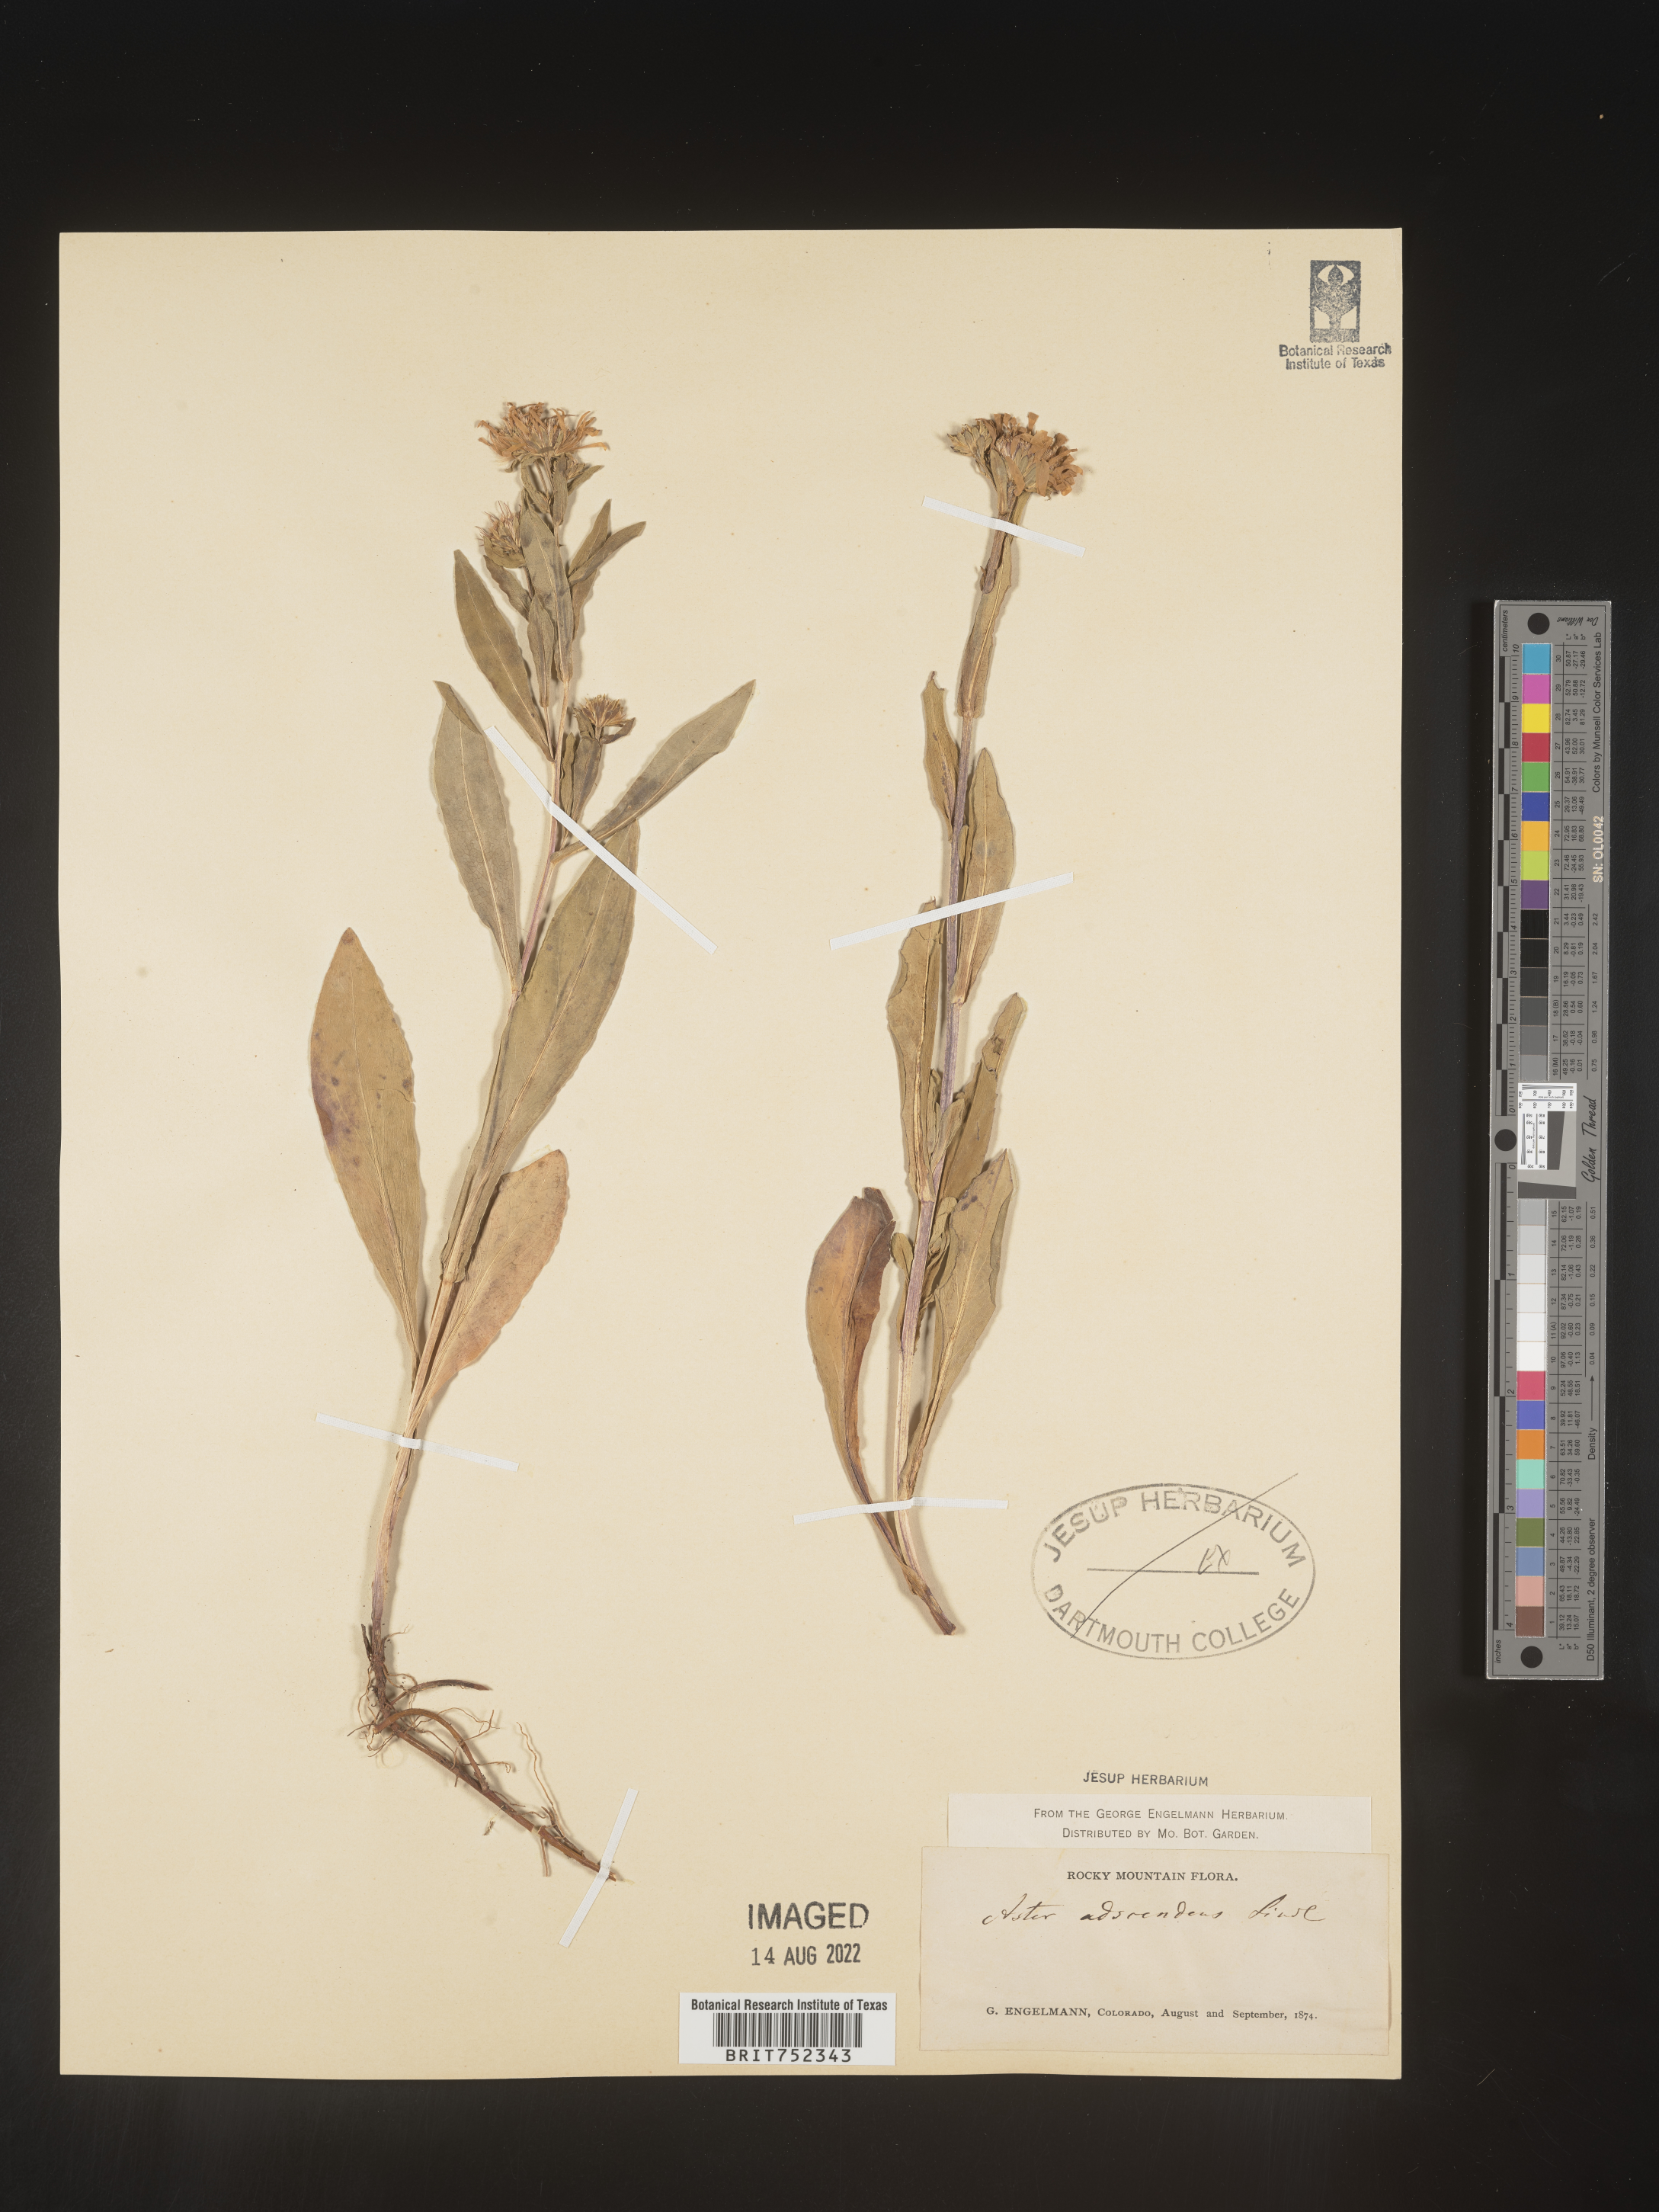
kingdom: Plantae
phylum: Tracheophyta
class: Magnoliopsida
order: Asterales
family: Asteraceae
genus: Symphyotrichum
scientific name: Symphyotrichum foliaceum
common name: Leafy aster
